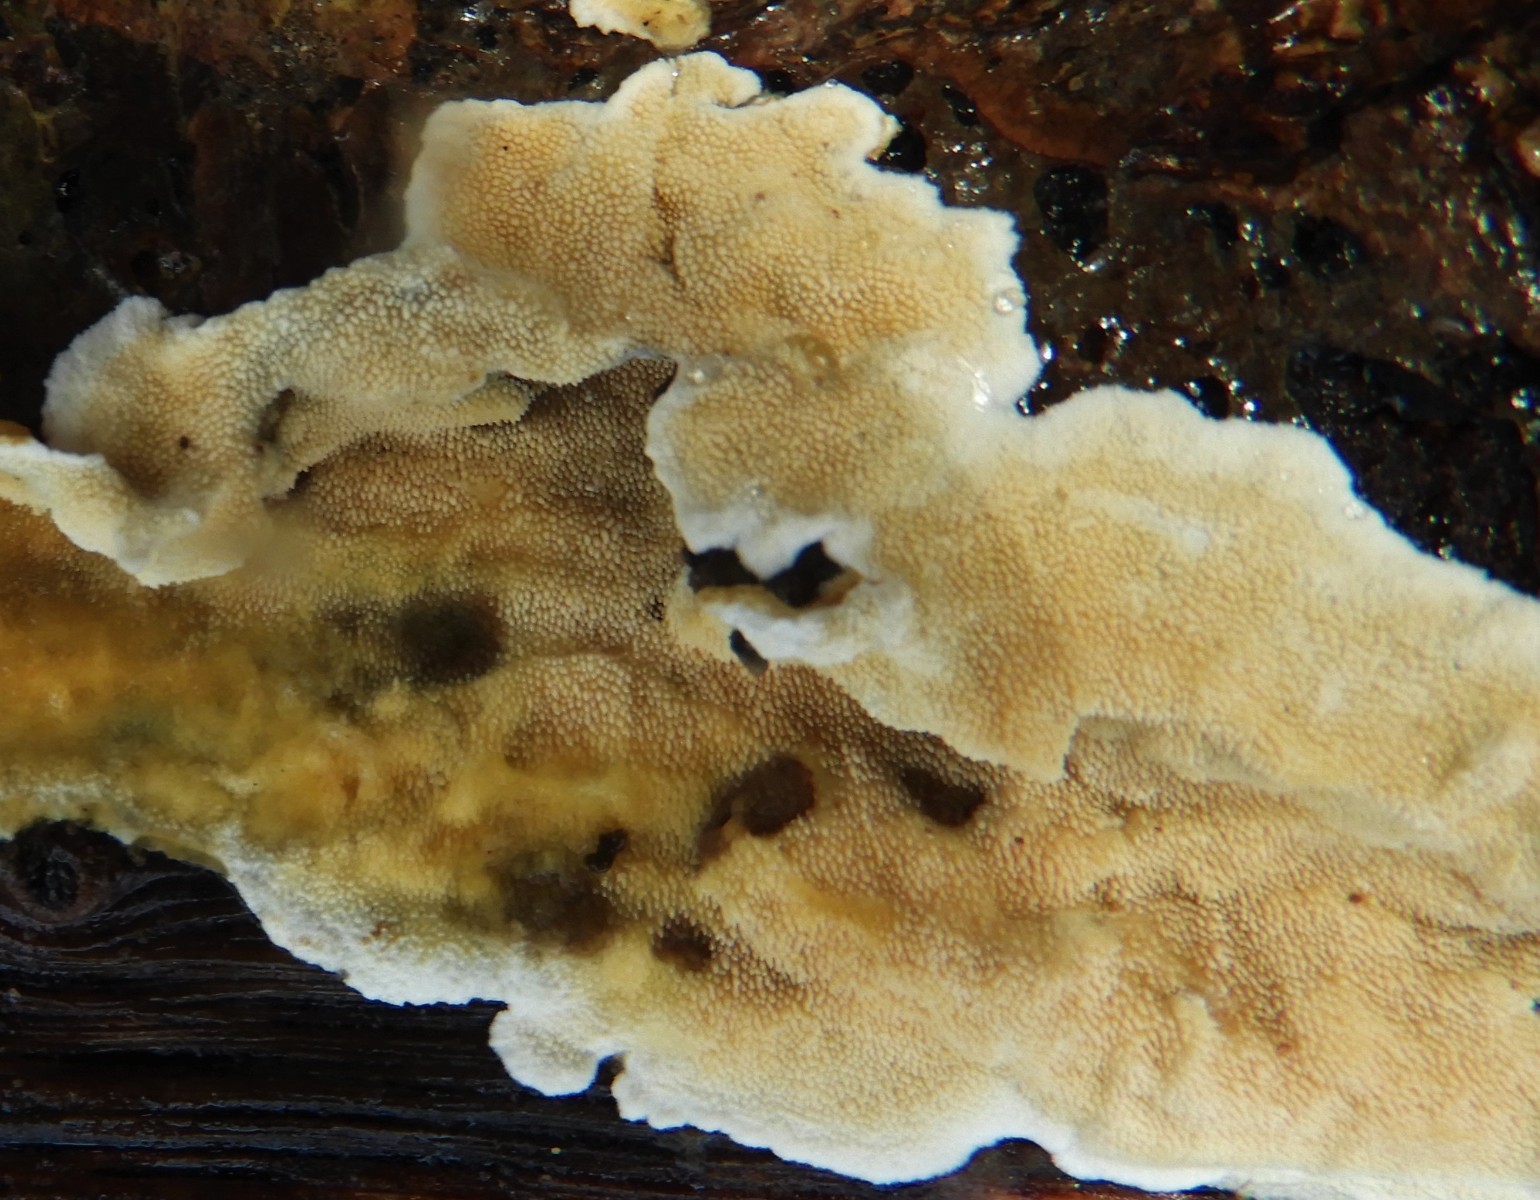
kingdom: Fungi
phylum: Basidiomycota
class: Agaricomycetes
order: Polyporales
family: Steccherinaceae
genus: Steccherinum
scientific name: Steccherinum ochraceum
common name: almindelig skønpig
